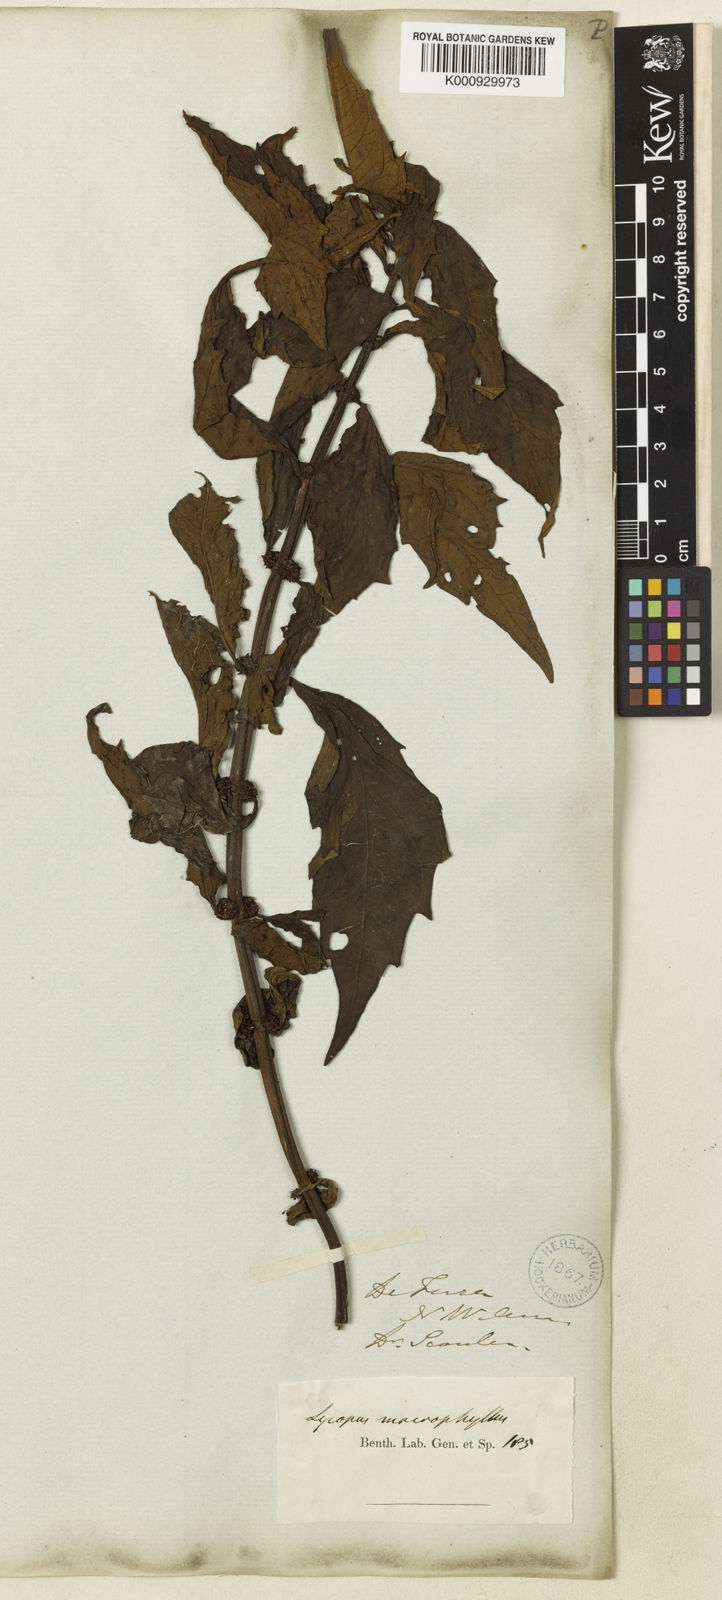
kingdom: Plantae
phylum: Tracheophyta
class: Magnoliopsida
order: Lamiales
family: Lamiaceae
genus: Lycopus
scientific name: Lycopus virginicus
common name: Bugleweed
